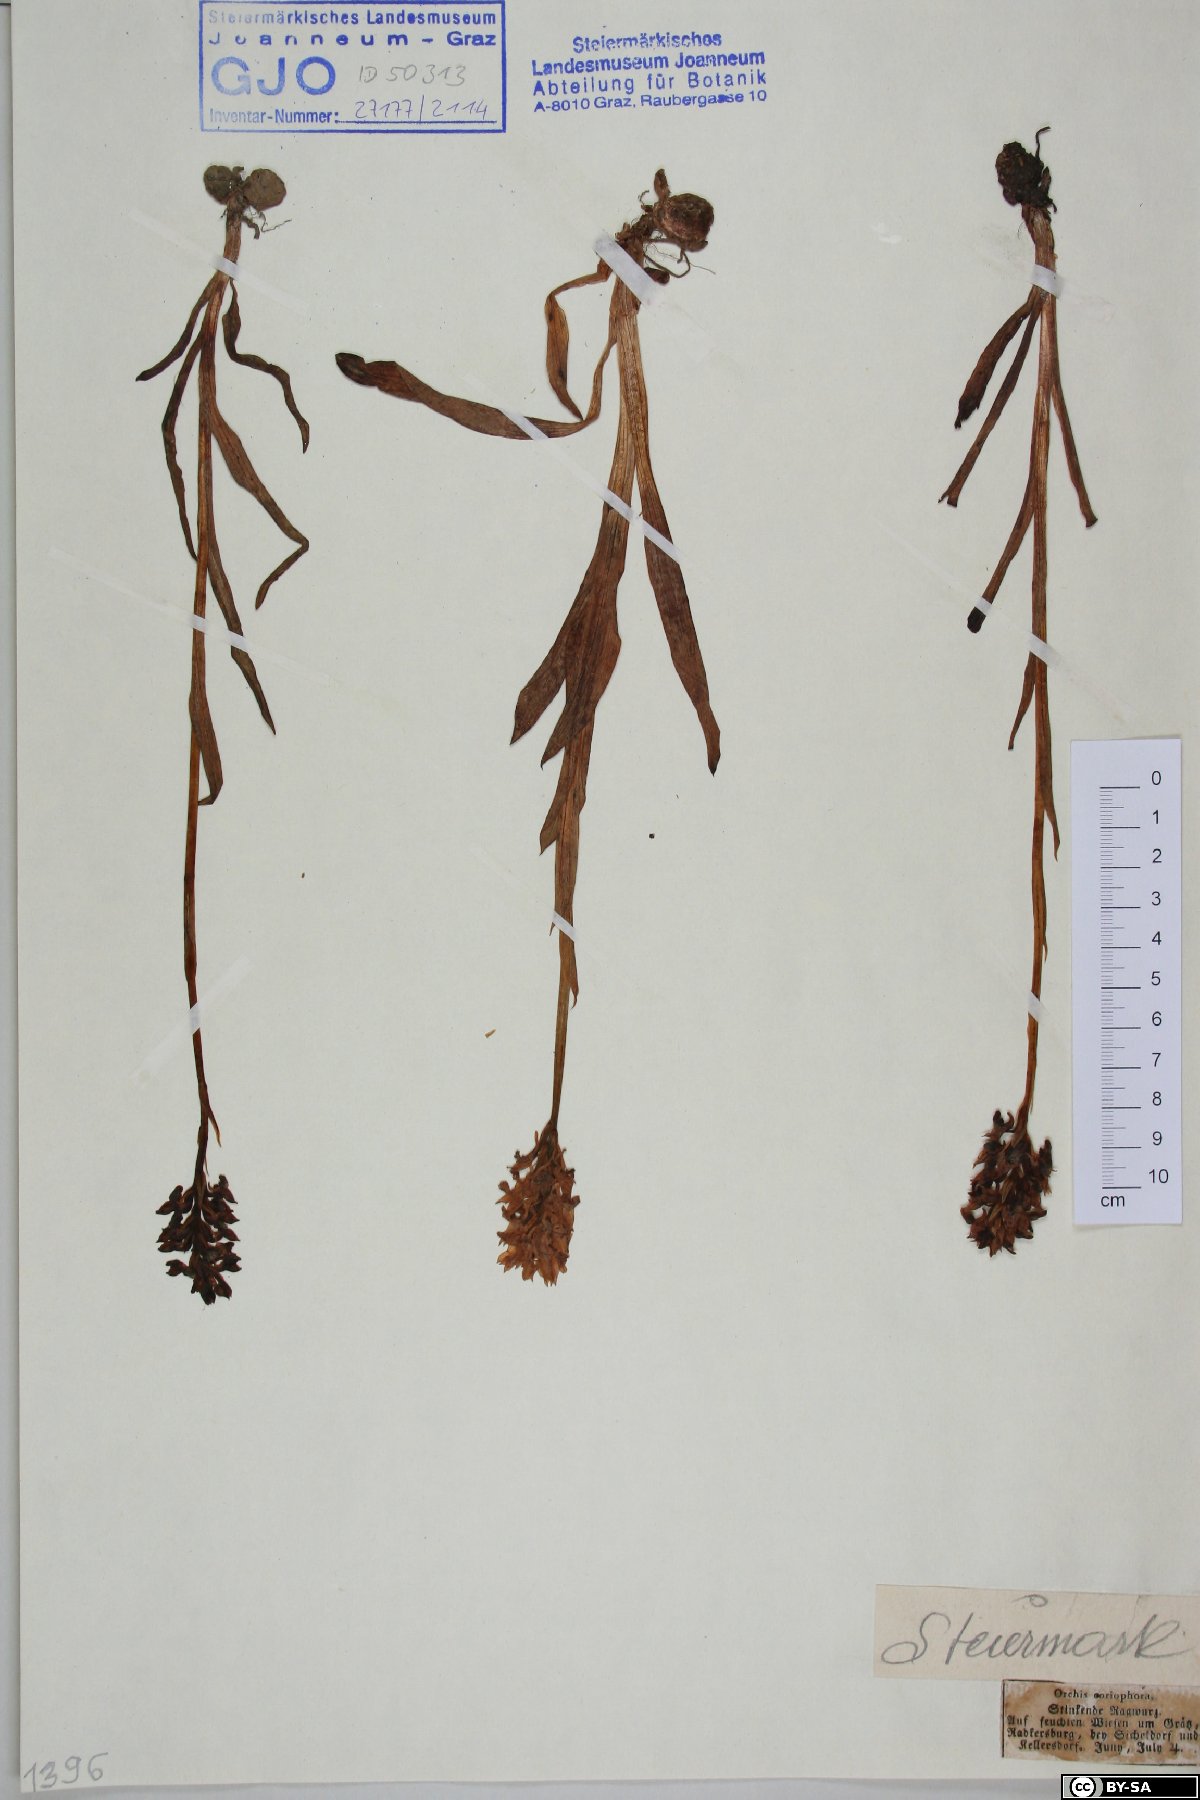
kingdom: Plantae
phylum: Tracheophyta
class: Liliopsida
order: Asparagales
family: Orchidaceae
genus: Anacamptis
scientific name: Anacamptis coriophora
